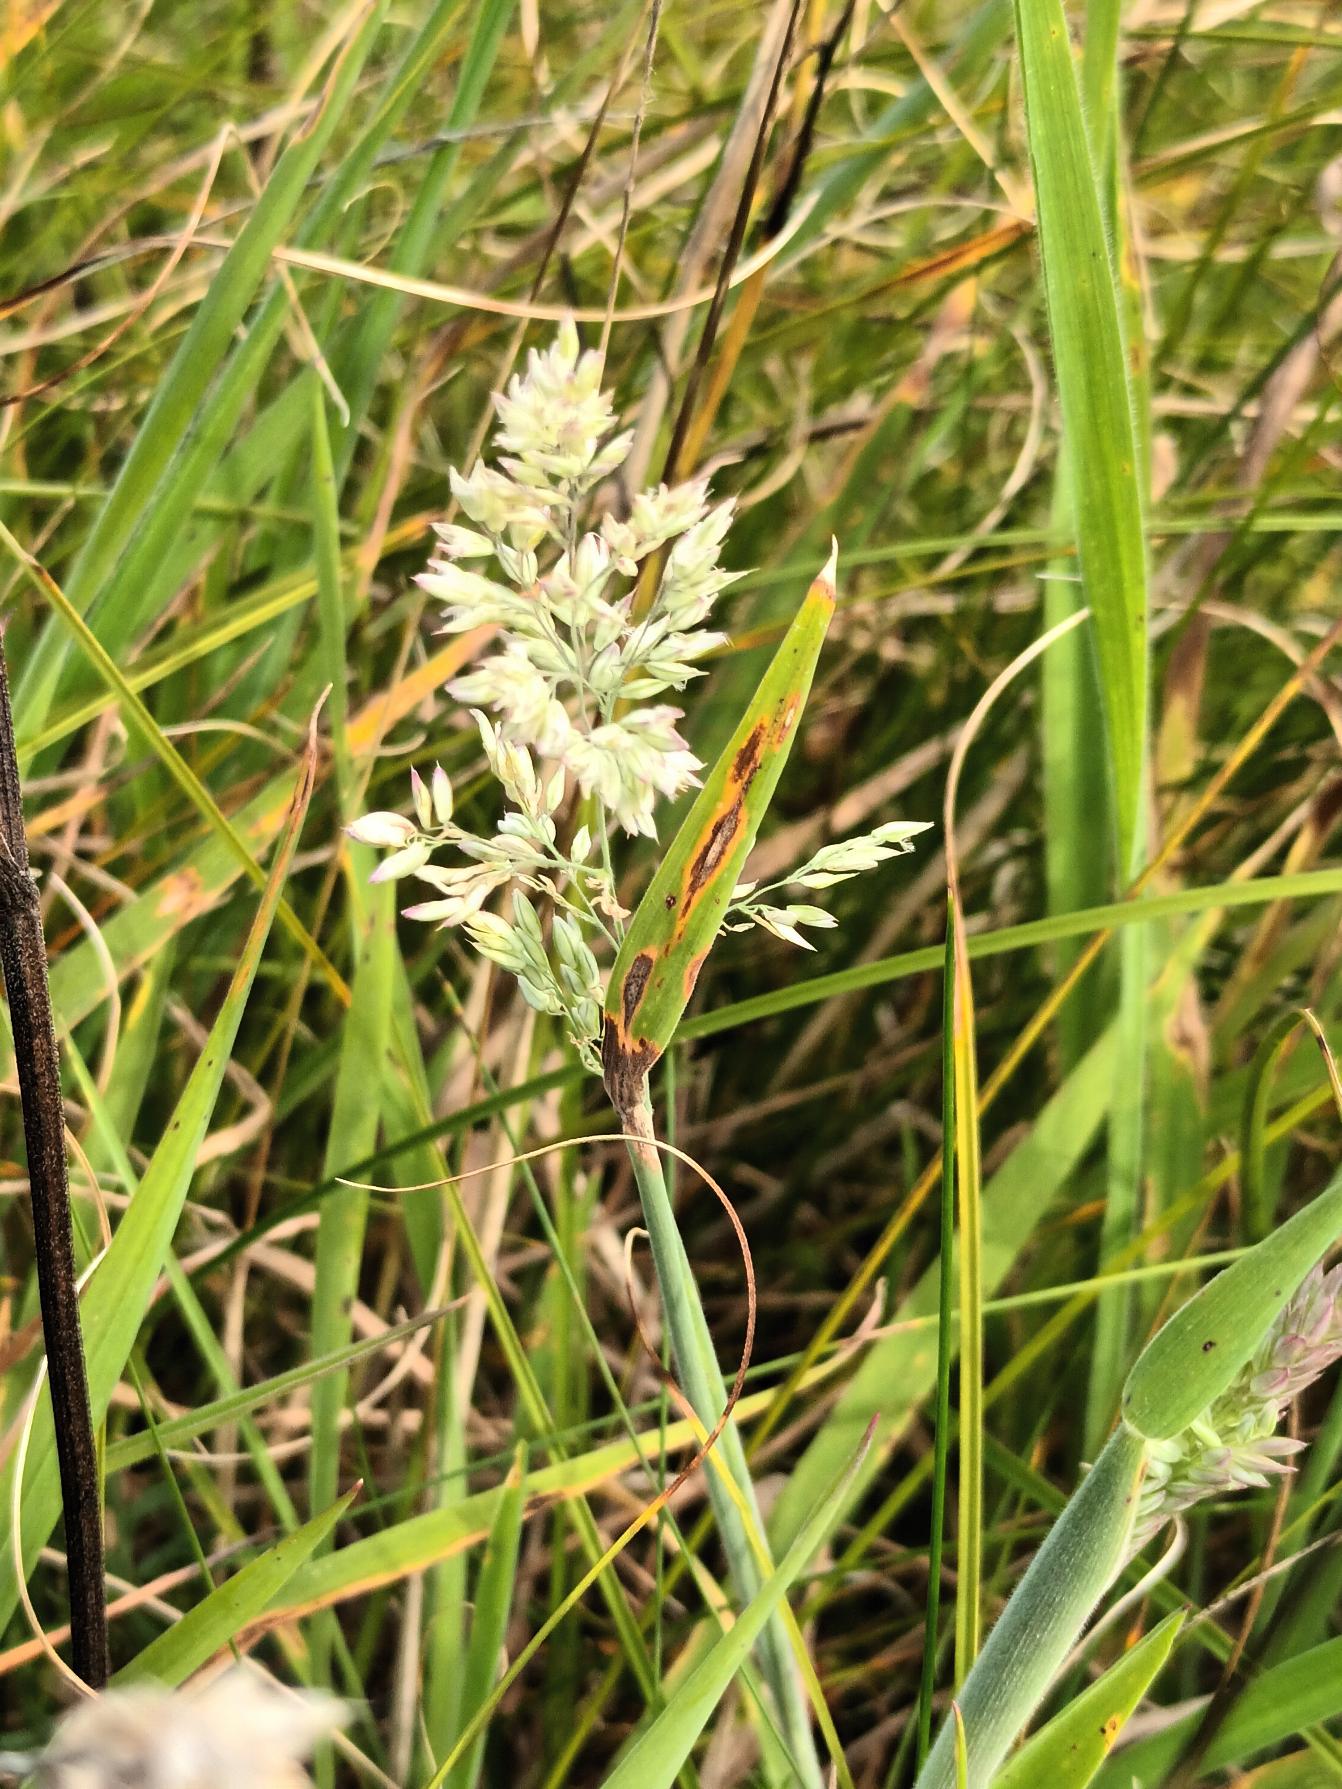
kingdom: Plantae
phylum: Tracheophyta
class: Liliopsida
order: Poales
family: Poaceae
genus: Holcus
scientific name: Holcus lanatus
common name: Fløjlsgræs
